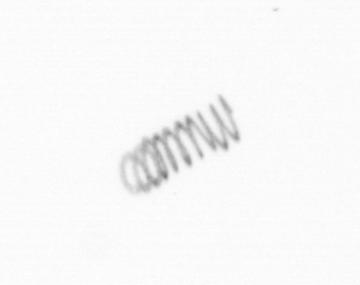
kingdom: Chromista
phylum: Ochrophyta
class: Bacillariophyceae
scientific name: Bacillariophyceae
